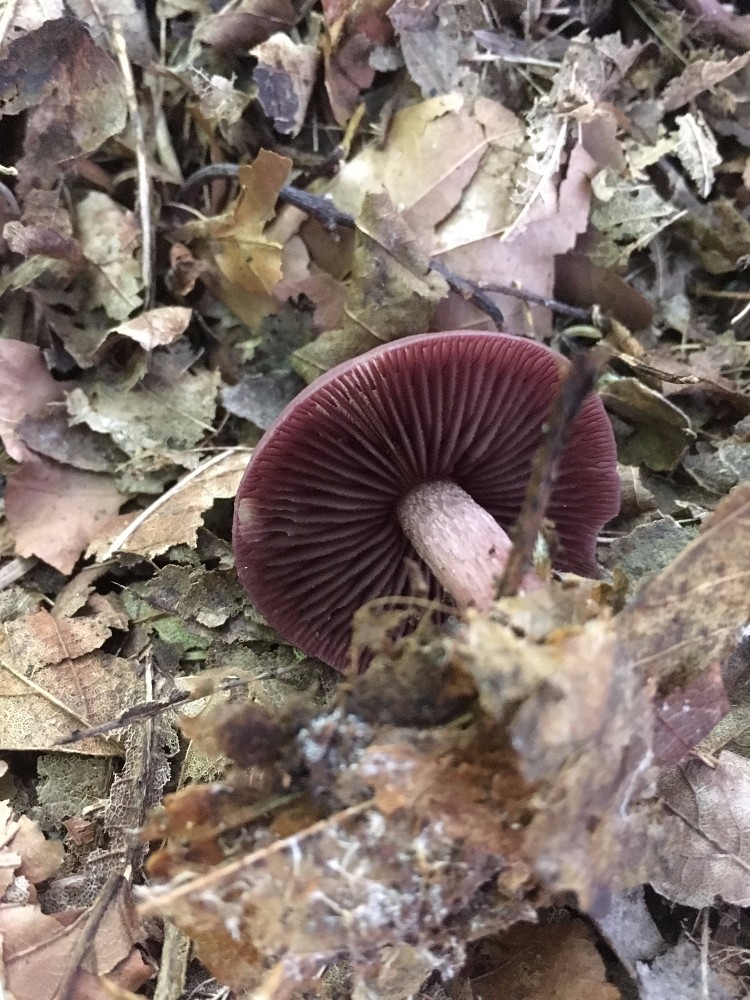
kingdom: Fungi
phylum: Basidiomycota
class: Agaricomycetes
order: Agaricales
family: Mycenaceae
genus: Mycena
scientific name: Mycena pelianthina
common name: mørkbladet huesvamp
